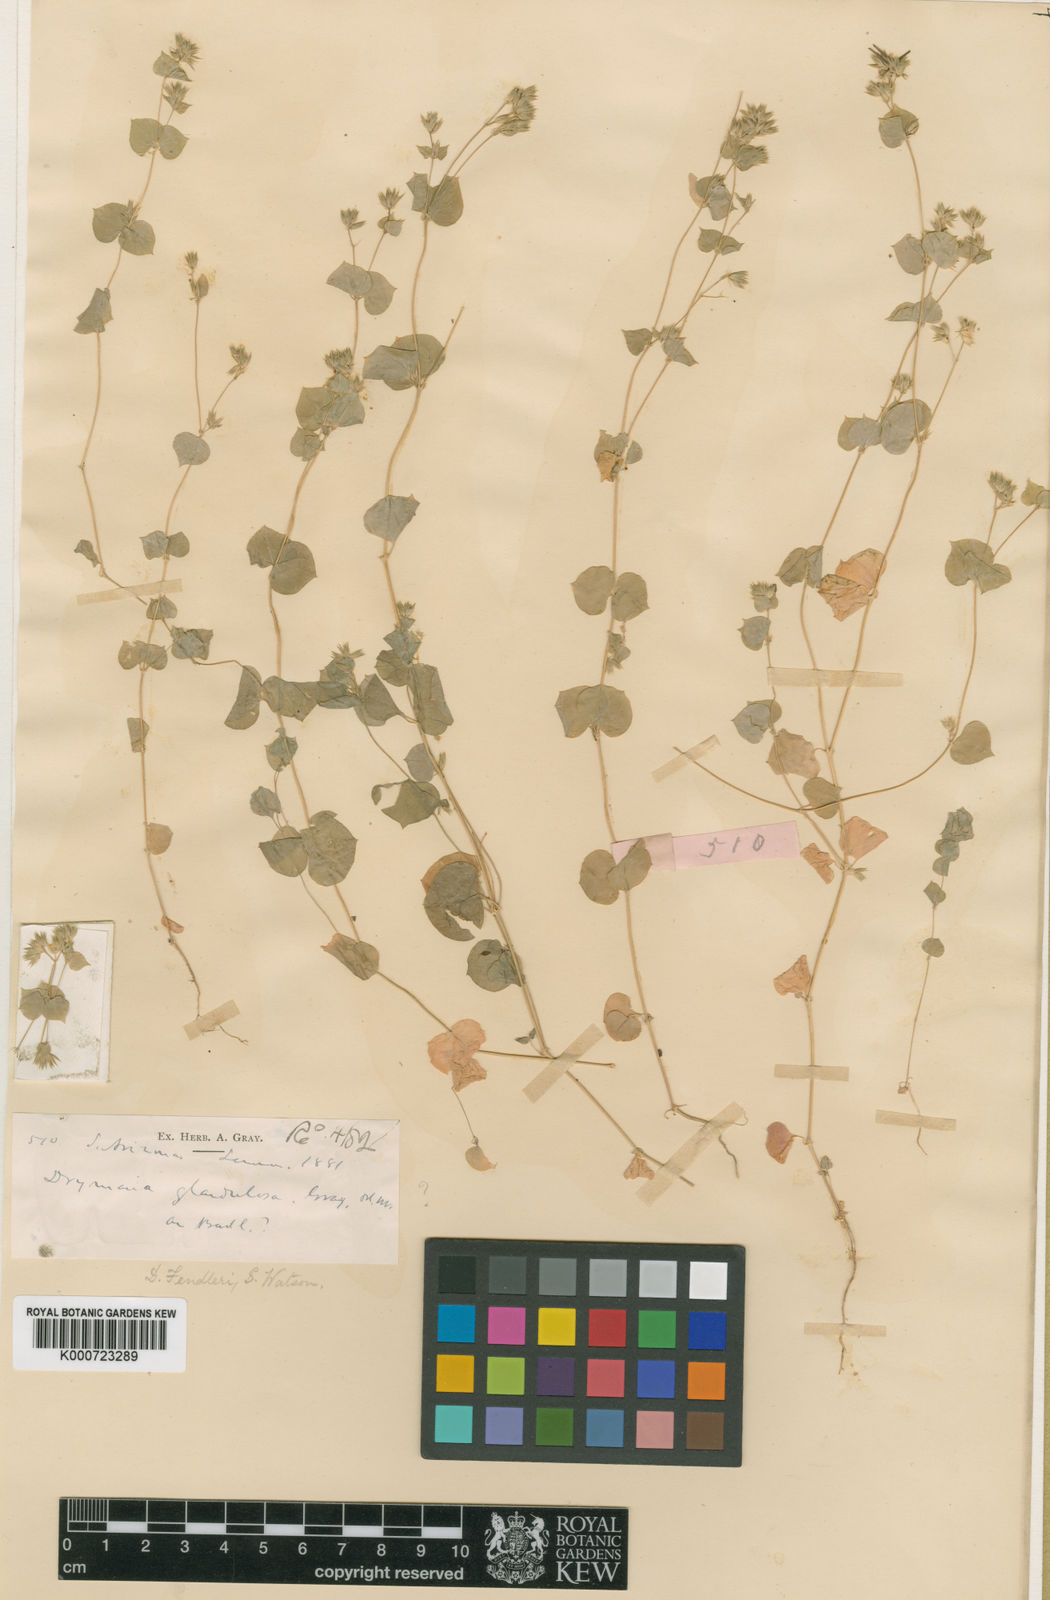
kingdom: Plantae
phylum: Tracheophyta
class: Magnoliopsida
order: Caryophyllales
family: Caryophyllaceae
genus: Drymaria
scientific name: Drymaria glandulosa
